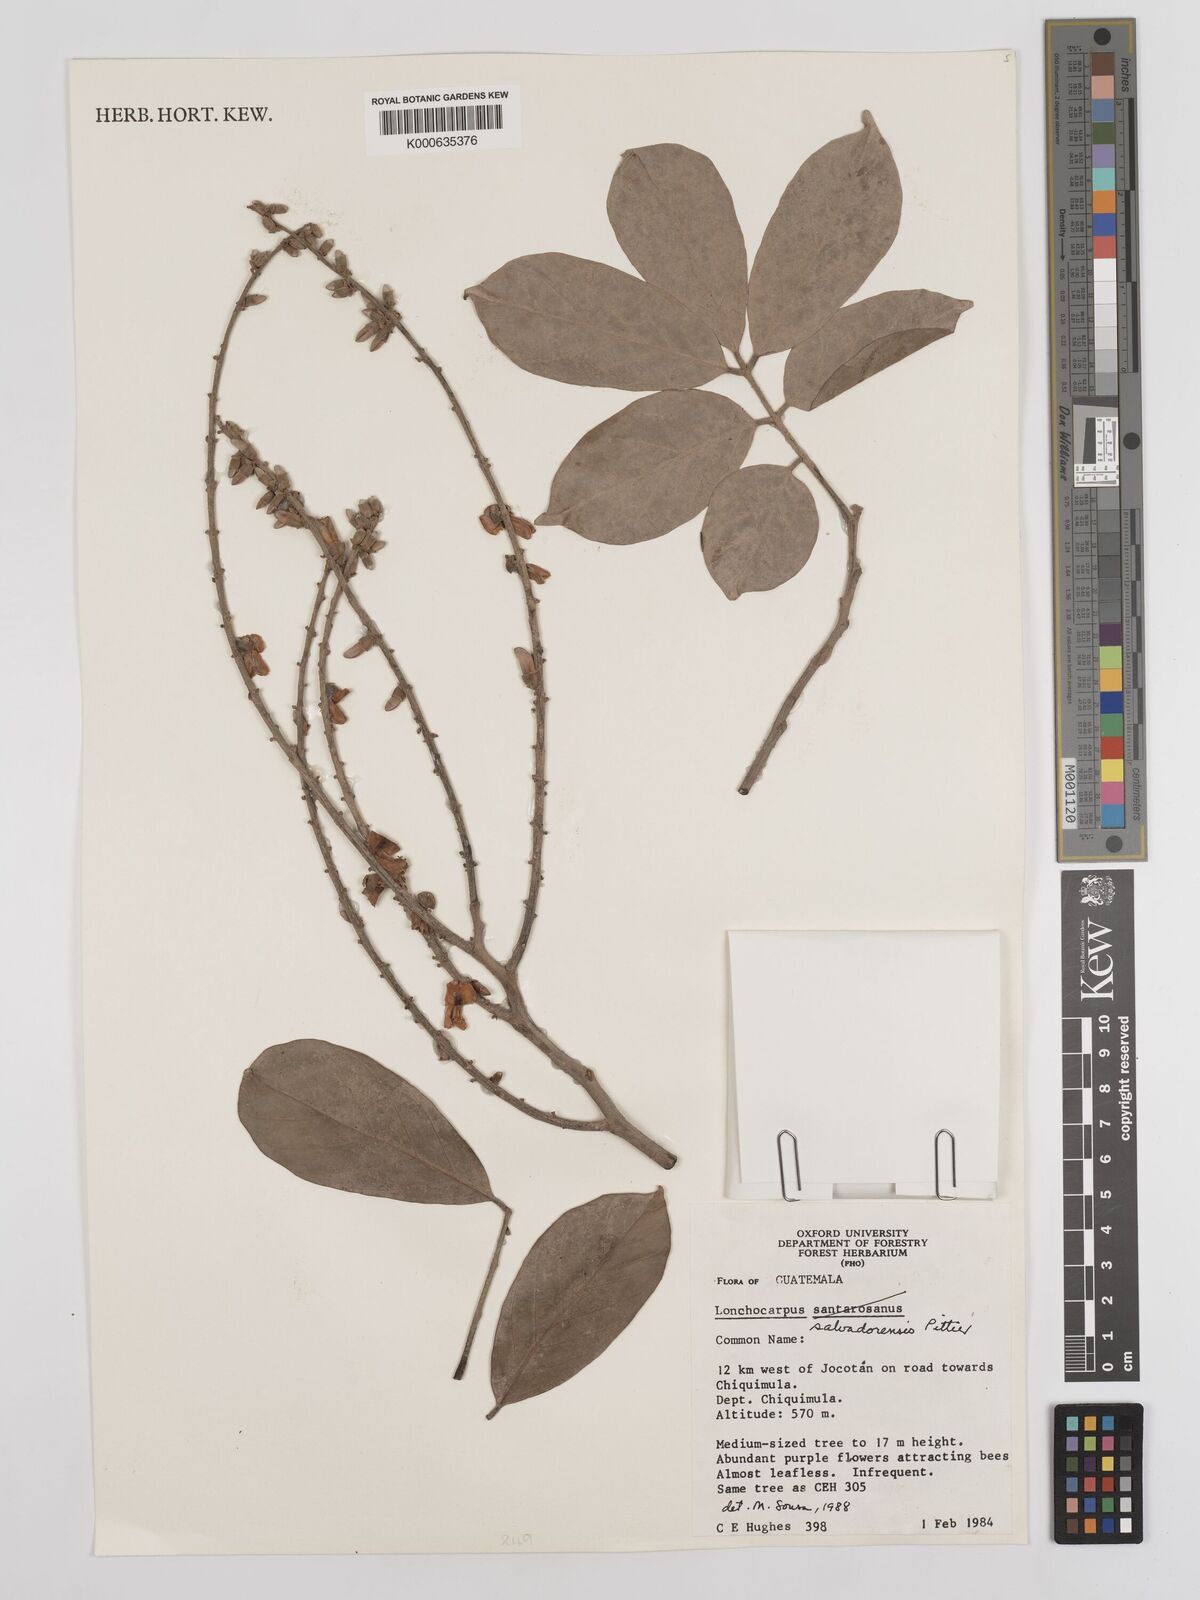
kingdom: Plantae
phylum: Tracheophyta
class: Magnoliopsida
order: Fabales
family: Fabaceae
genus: Lonchocarpus
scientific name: Lonchocarpus salvadorensis
